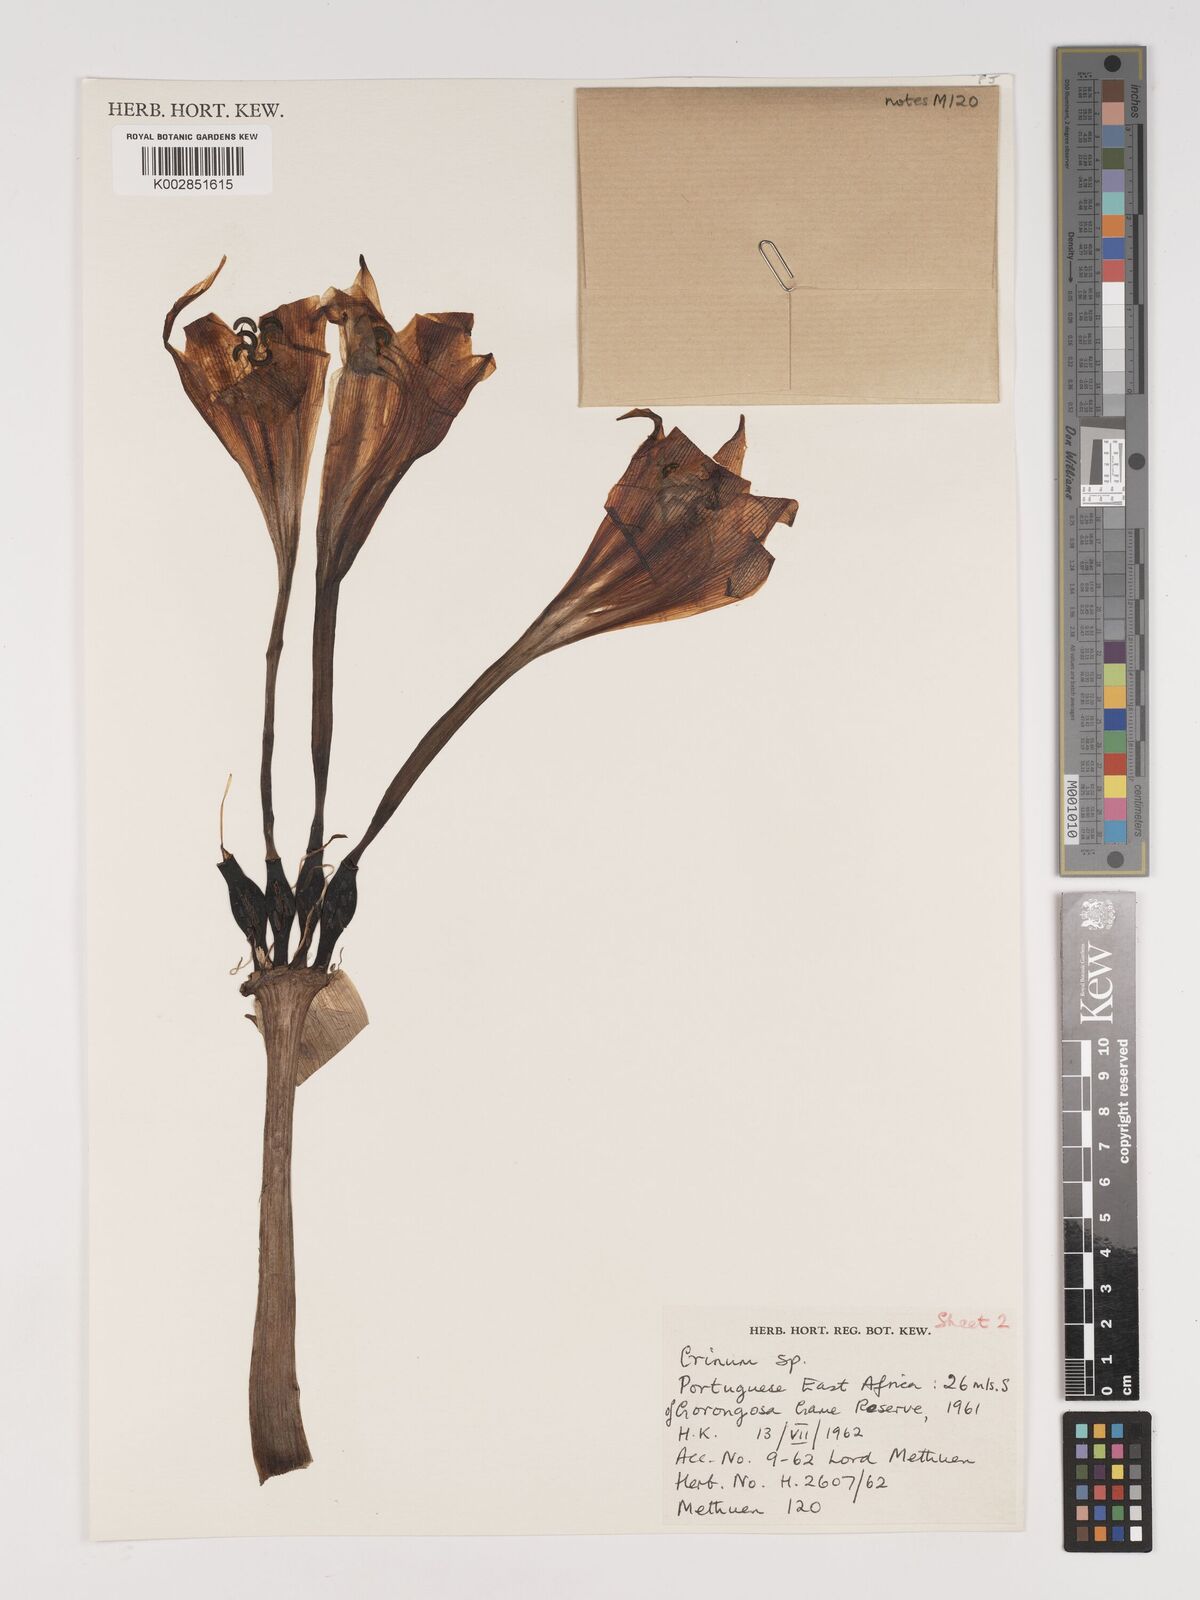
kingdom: Plantae
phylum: Tracheophyta
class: Liliopsida
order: Asparagales
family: Amaryllidaceae
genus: Crinum
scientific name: Crinum macowanii
